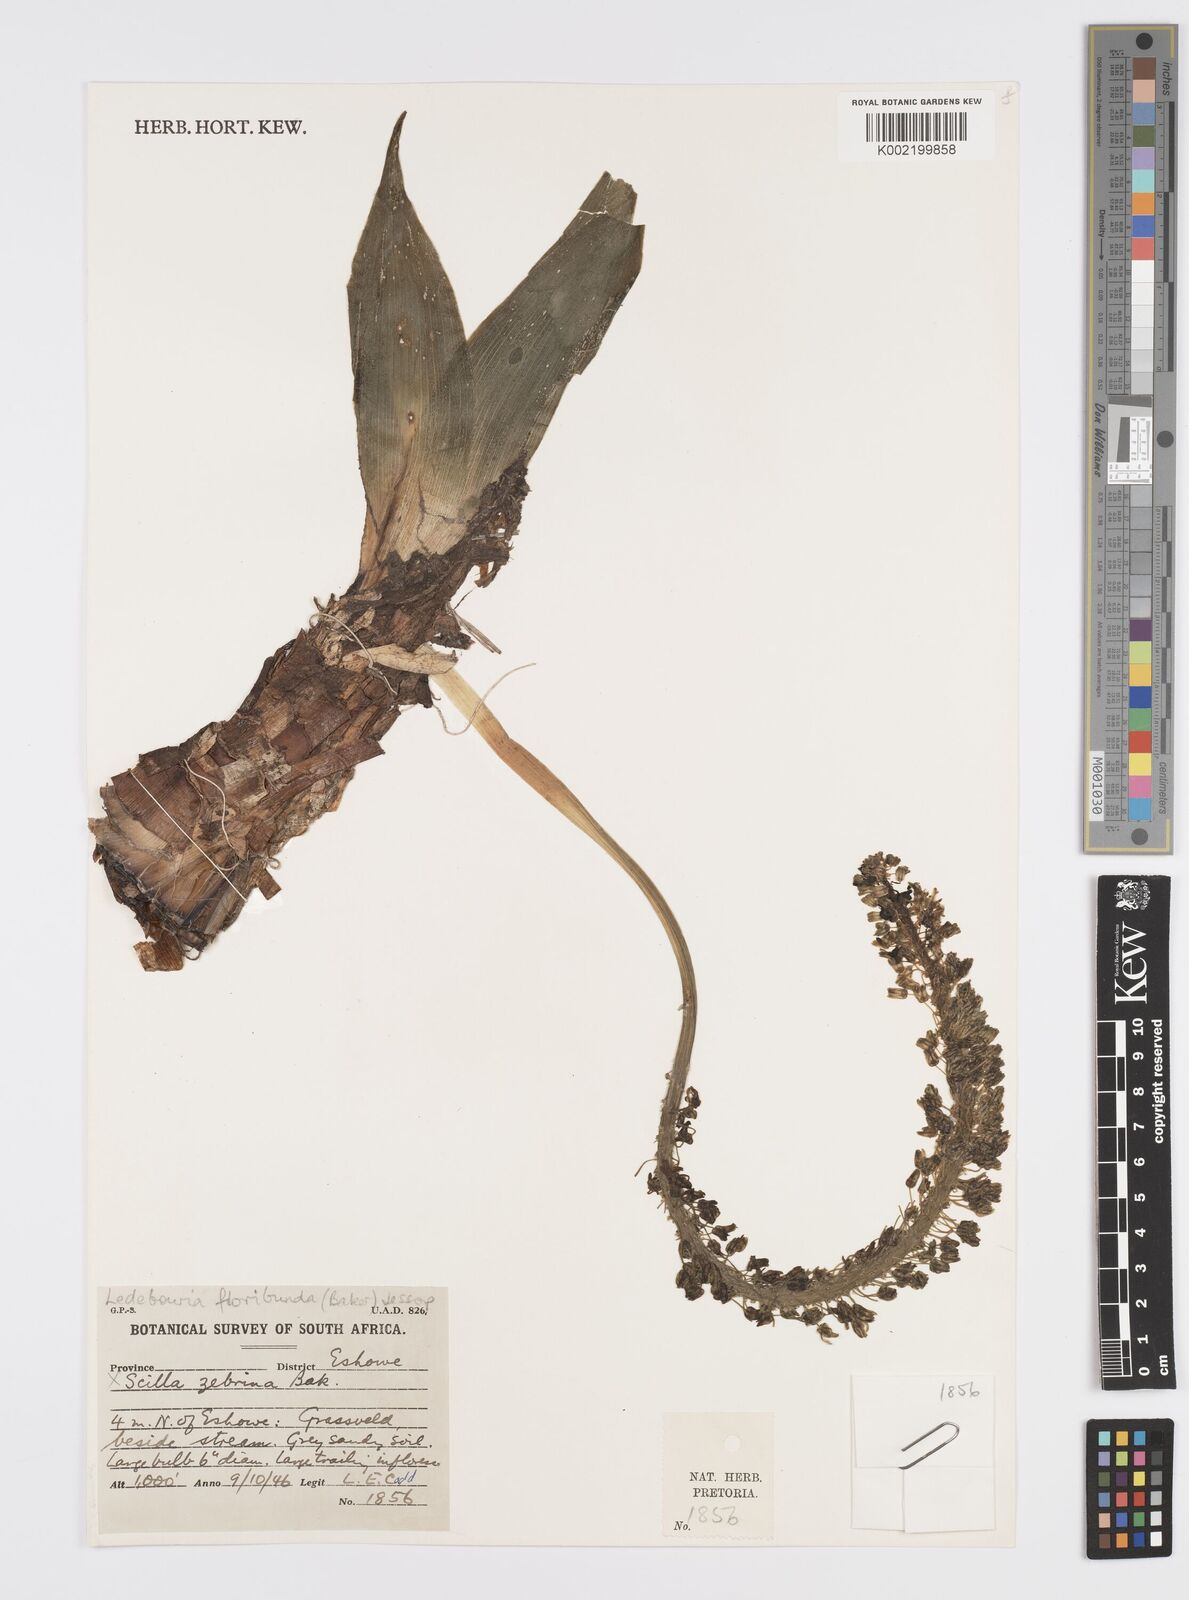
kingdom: Plantae
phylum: Tracheophyta
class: Liliopsida
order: Asparagales
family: Asparagaceae
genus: Ledebouria
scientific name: Ledebouria floribunda
